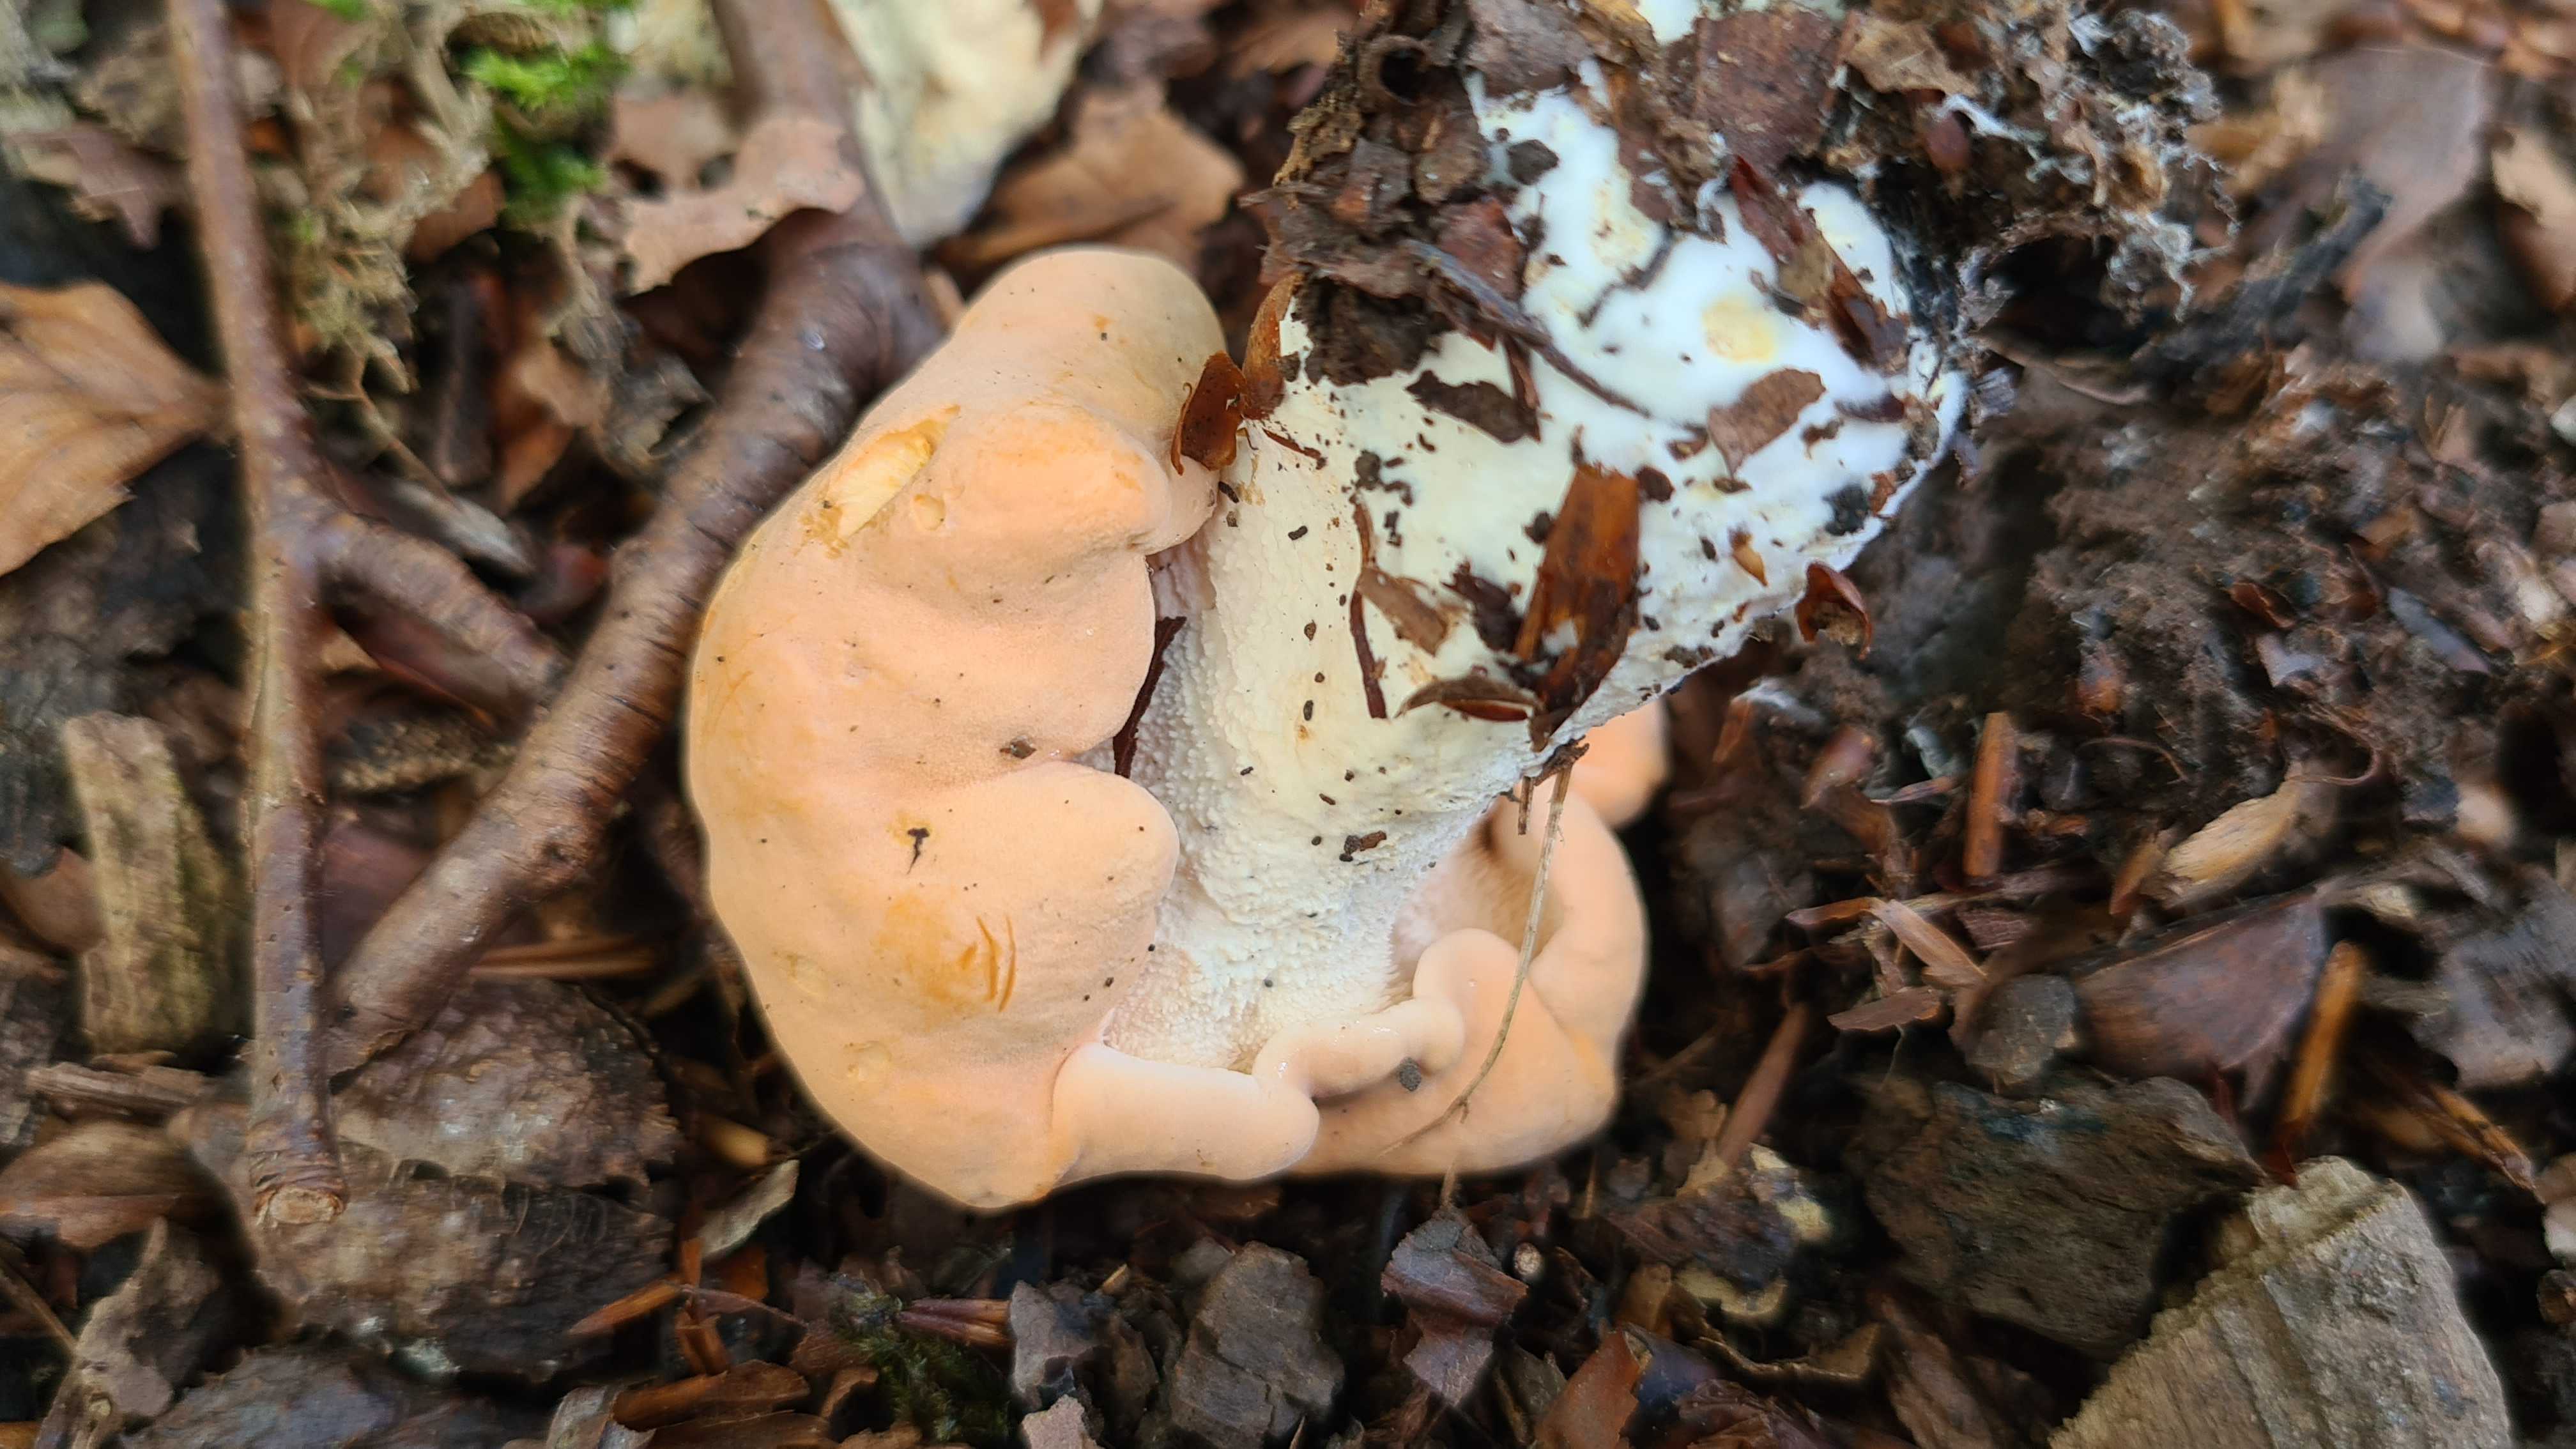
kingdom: Fungi
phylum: Basidiomycota
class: Agaricomycetes
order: Cantharellales
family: Hydnaceae
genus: Hydnum
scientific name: Hydnum slovenicum
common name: slovensk pigsvamp
